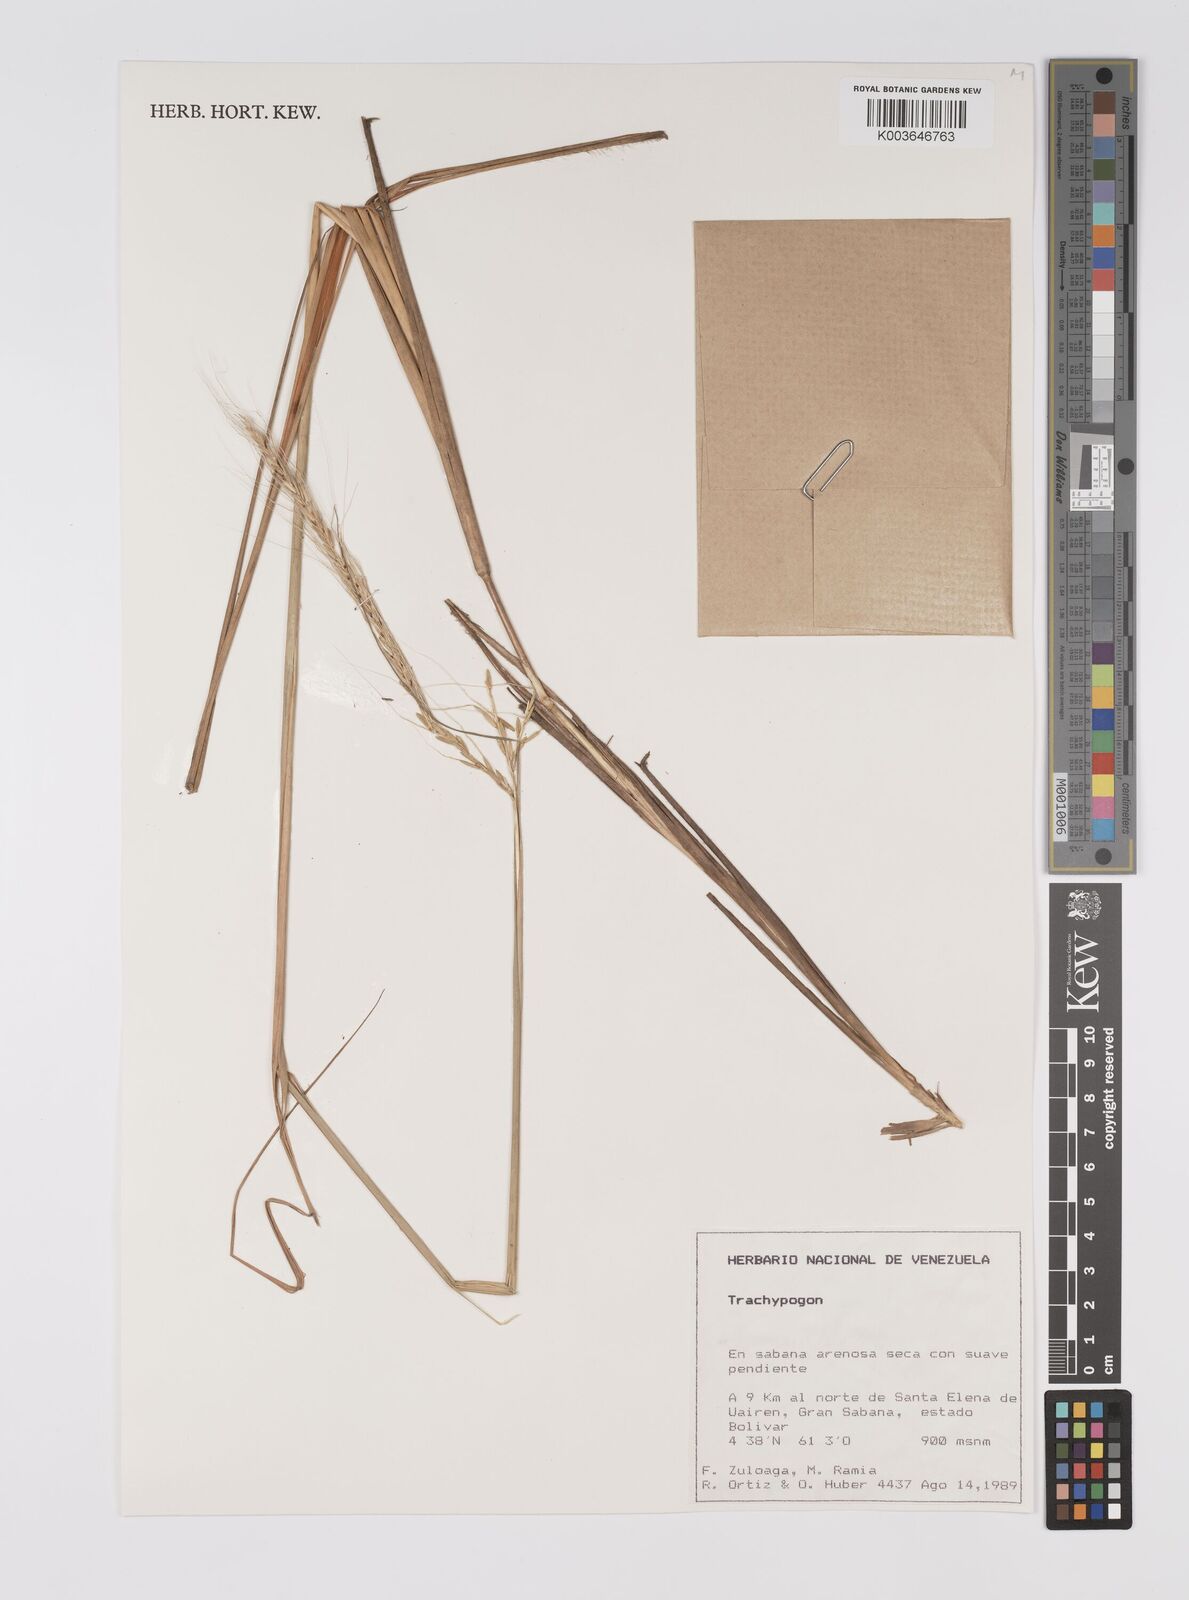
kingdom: Plantae
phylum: Tracheophyta
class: Liliopsida
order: Poales
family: Poaceae
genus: Trachypogon
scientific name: Trachypogon spicatus
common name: Crinkle-awn
